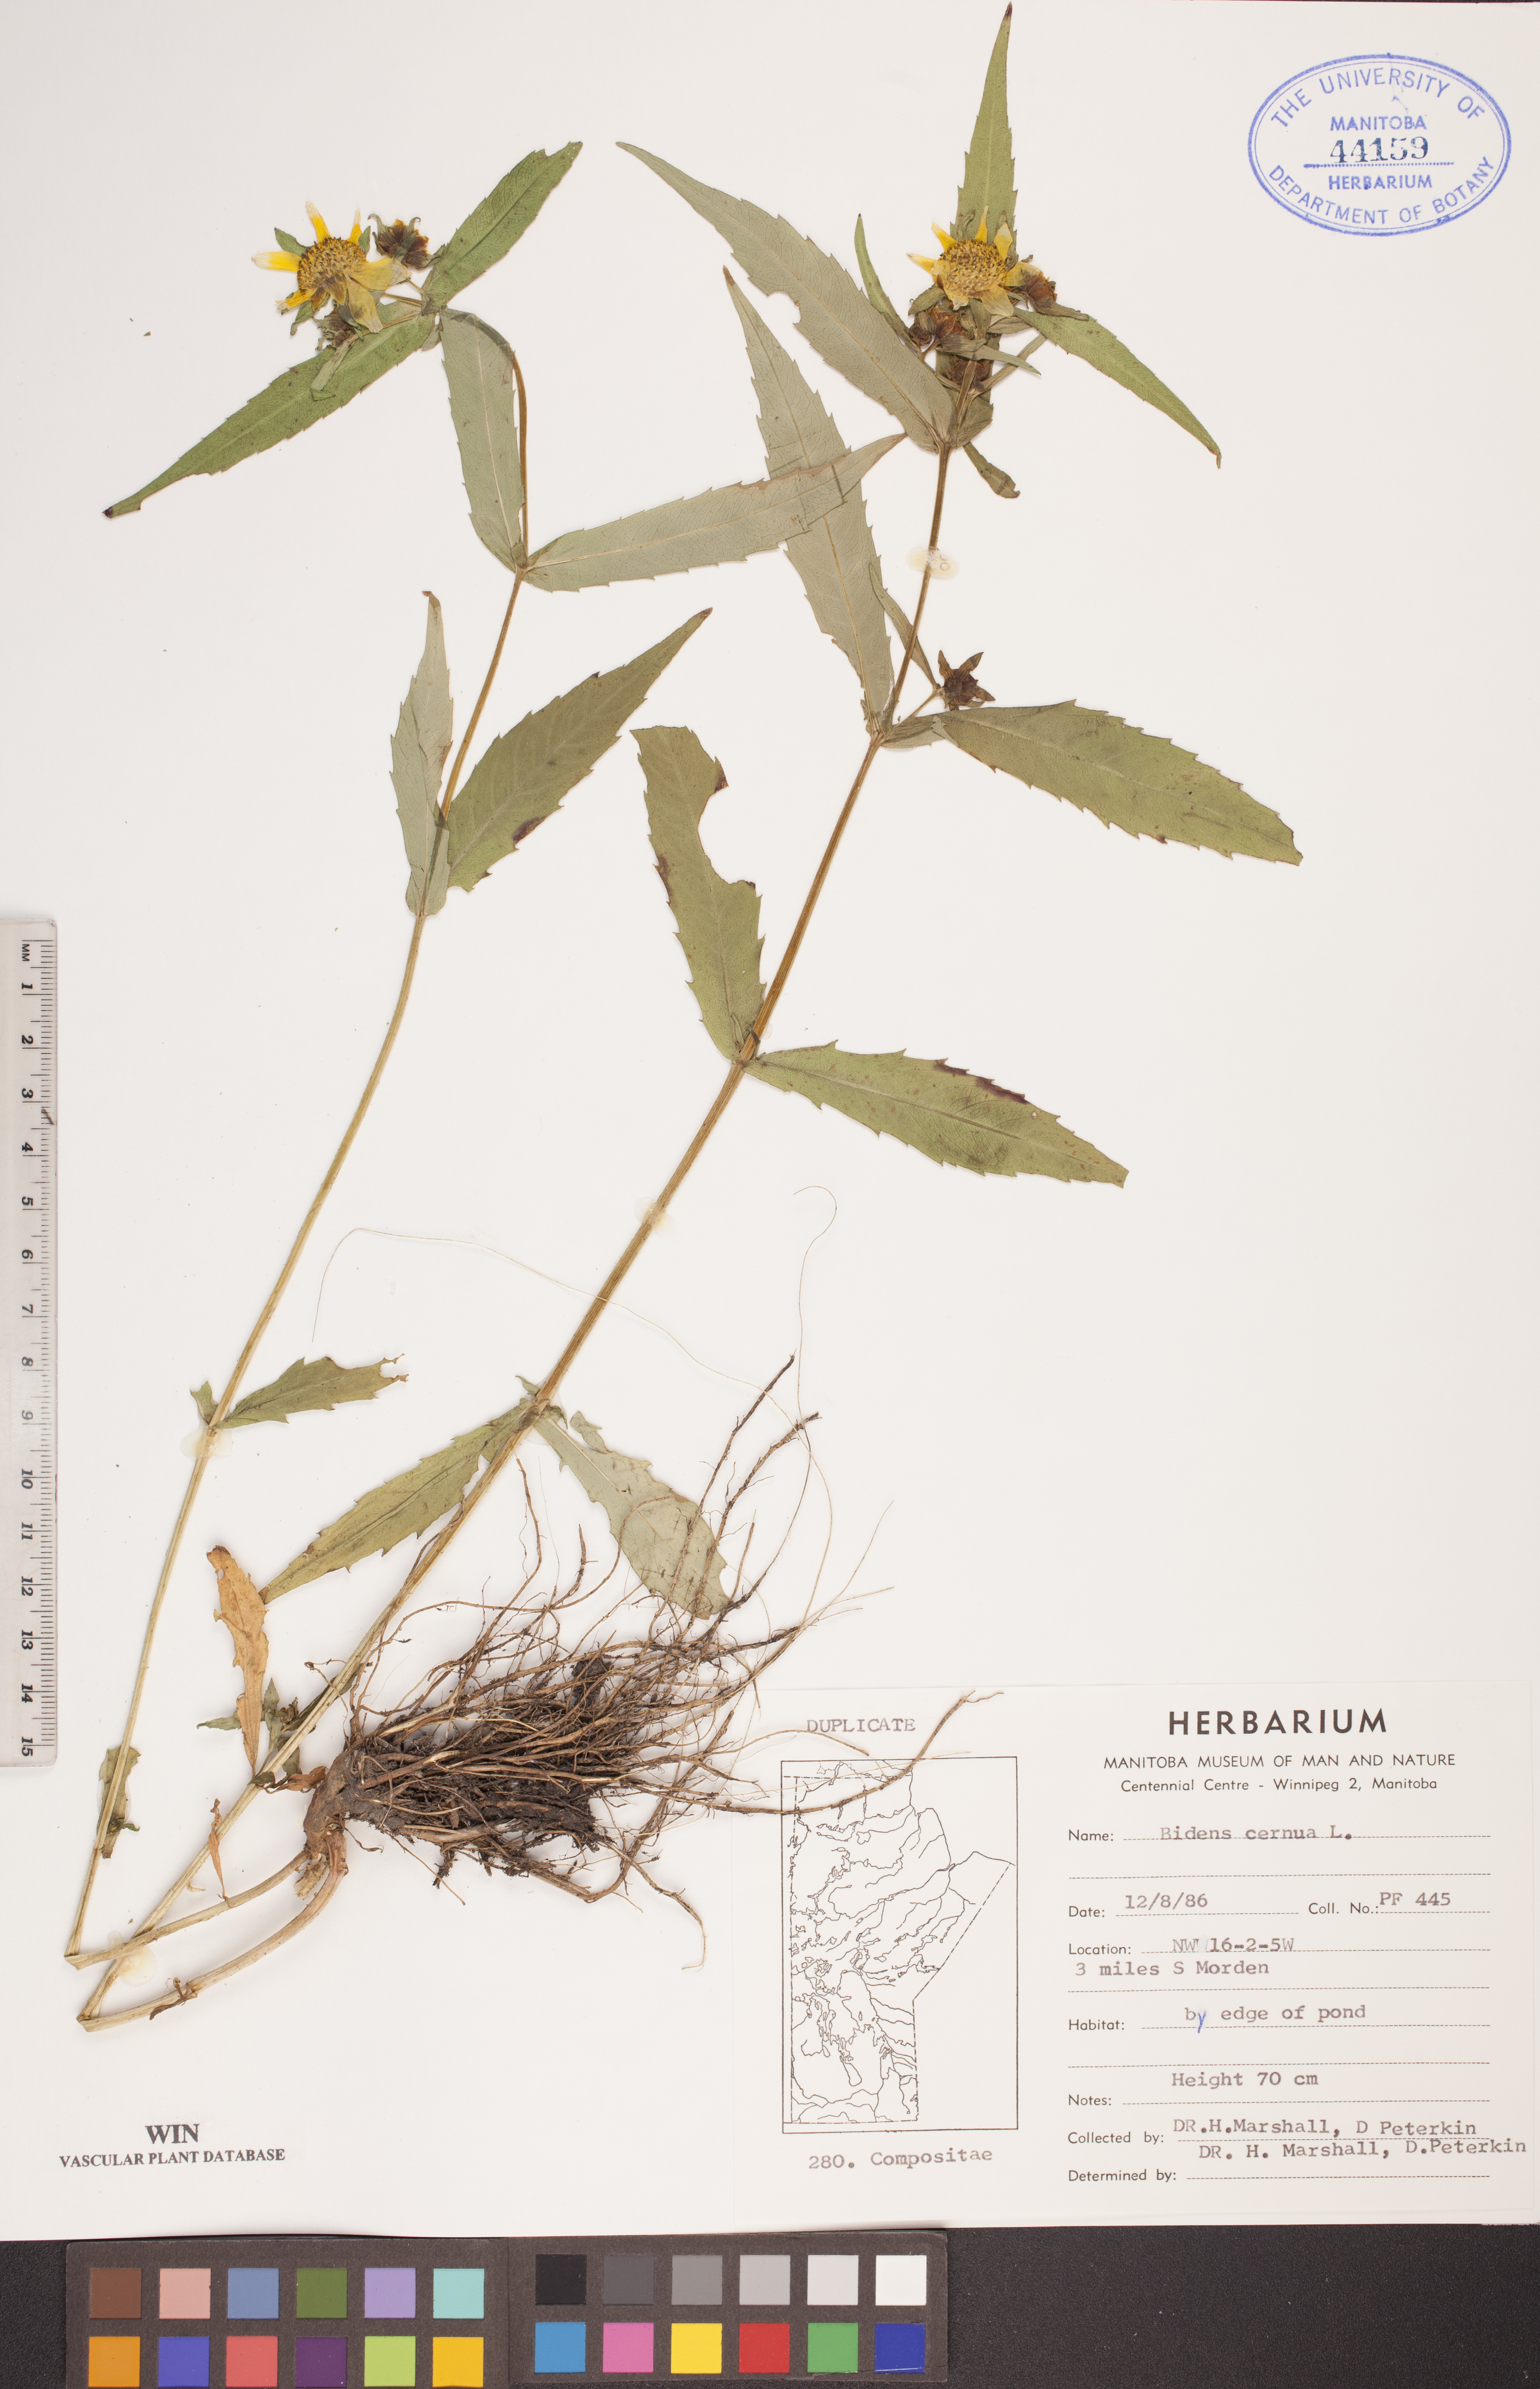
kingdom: Plantae
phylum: Tracheophyta
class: Magnoliopsida
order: Asterales
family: Asteraceae
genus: Bidens
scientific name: Bidens cernua
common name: Nodding bur-marigold
